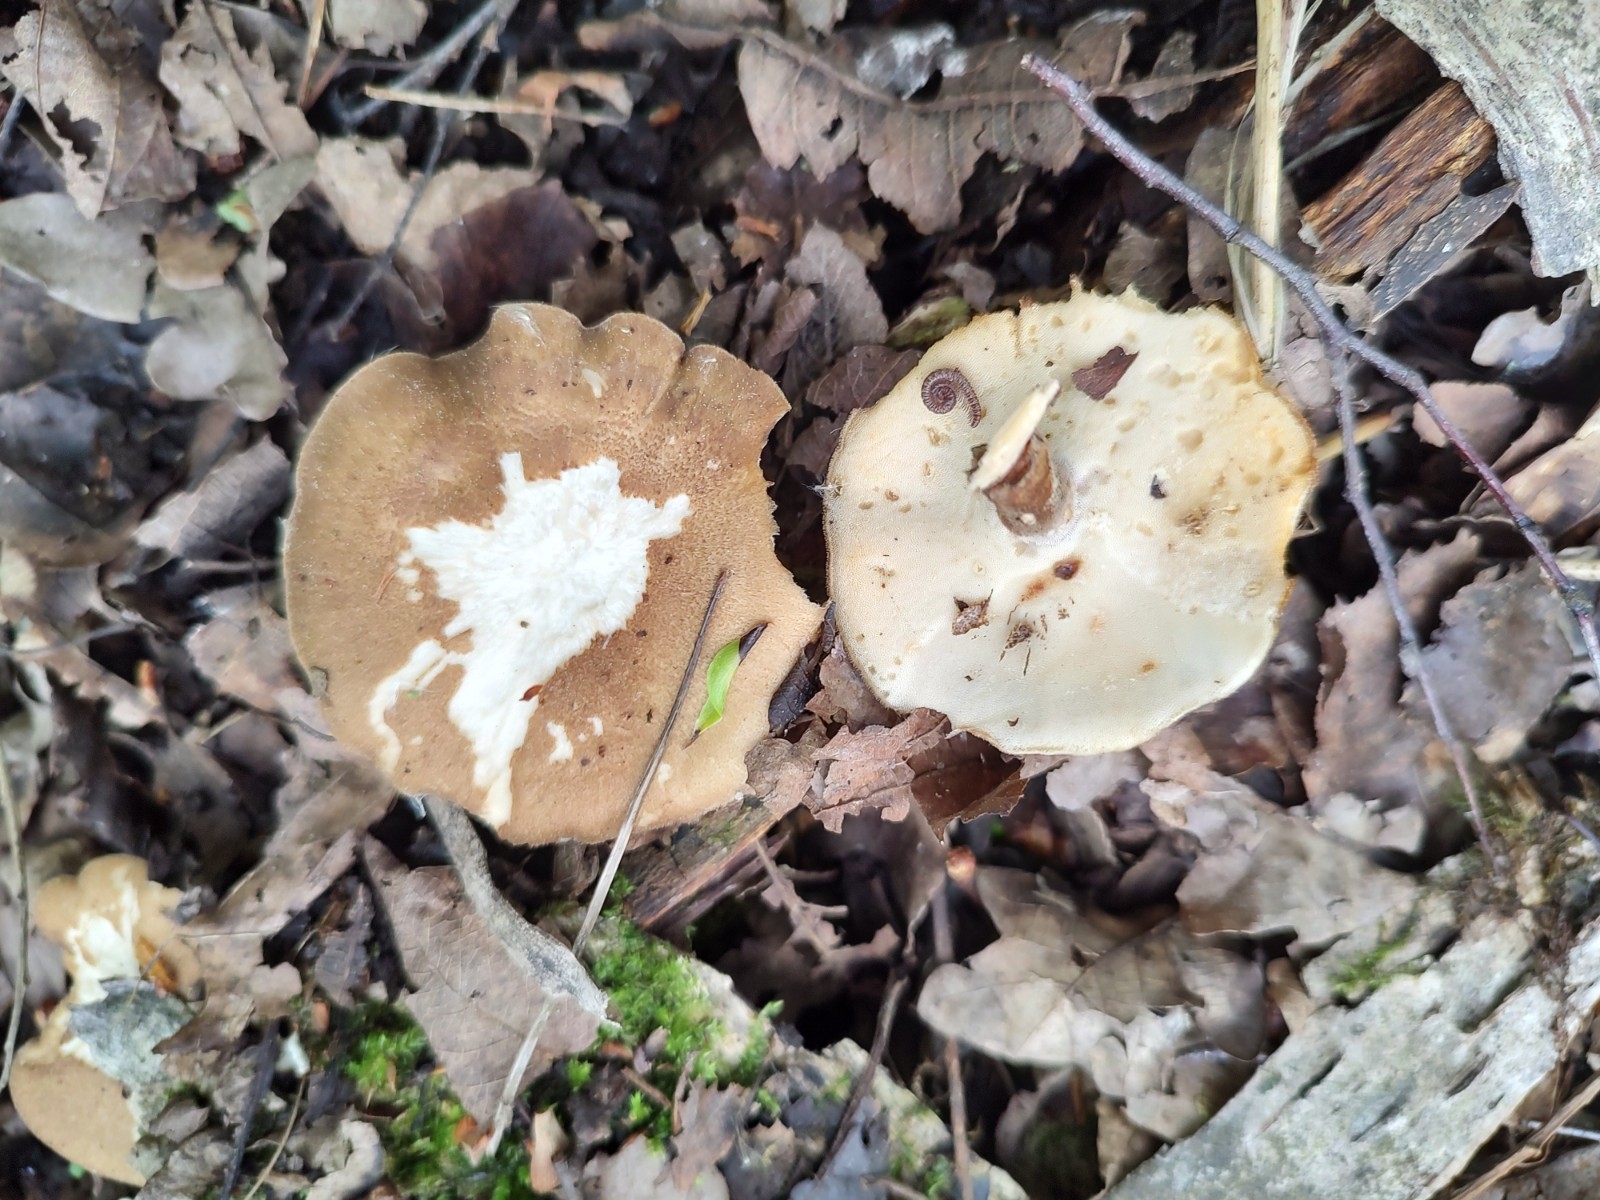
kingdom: Fungi
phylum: Basidiomycota
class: Agaricomycetes
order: Polyporales
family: Polyporaceae
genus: Lentinus
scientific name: Lentinus substrictus
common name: forårs-stilkporesvamp
